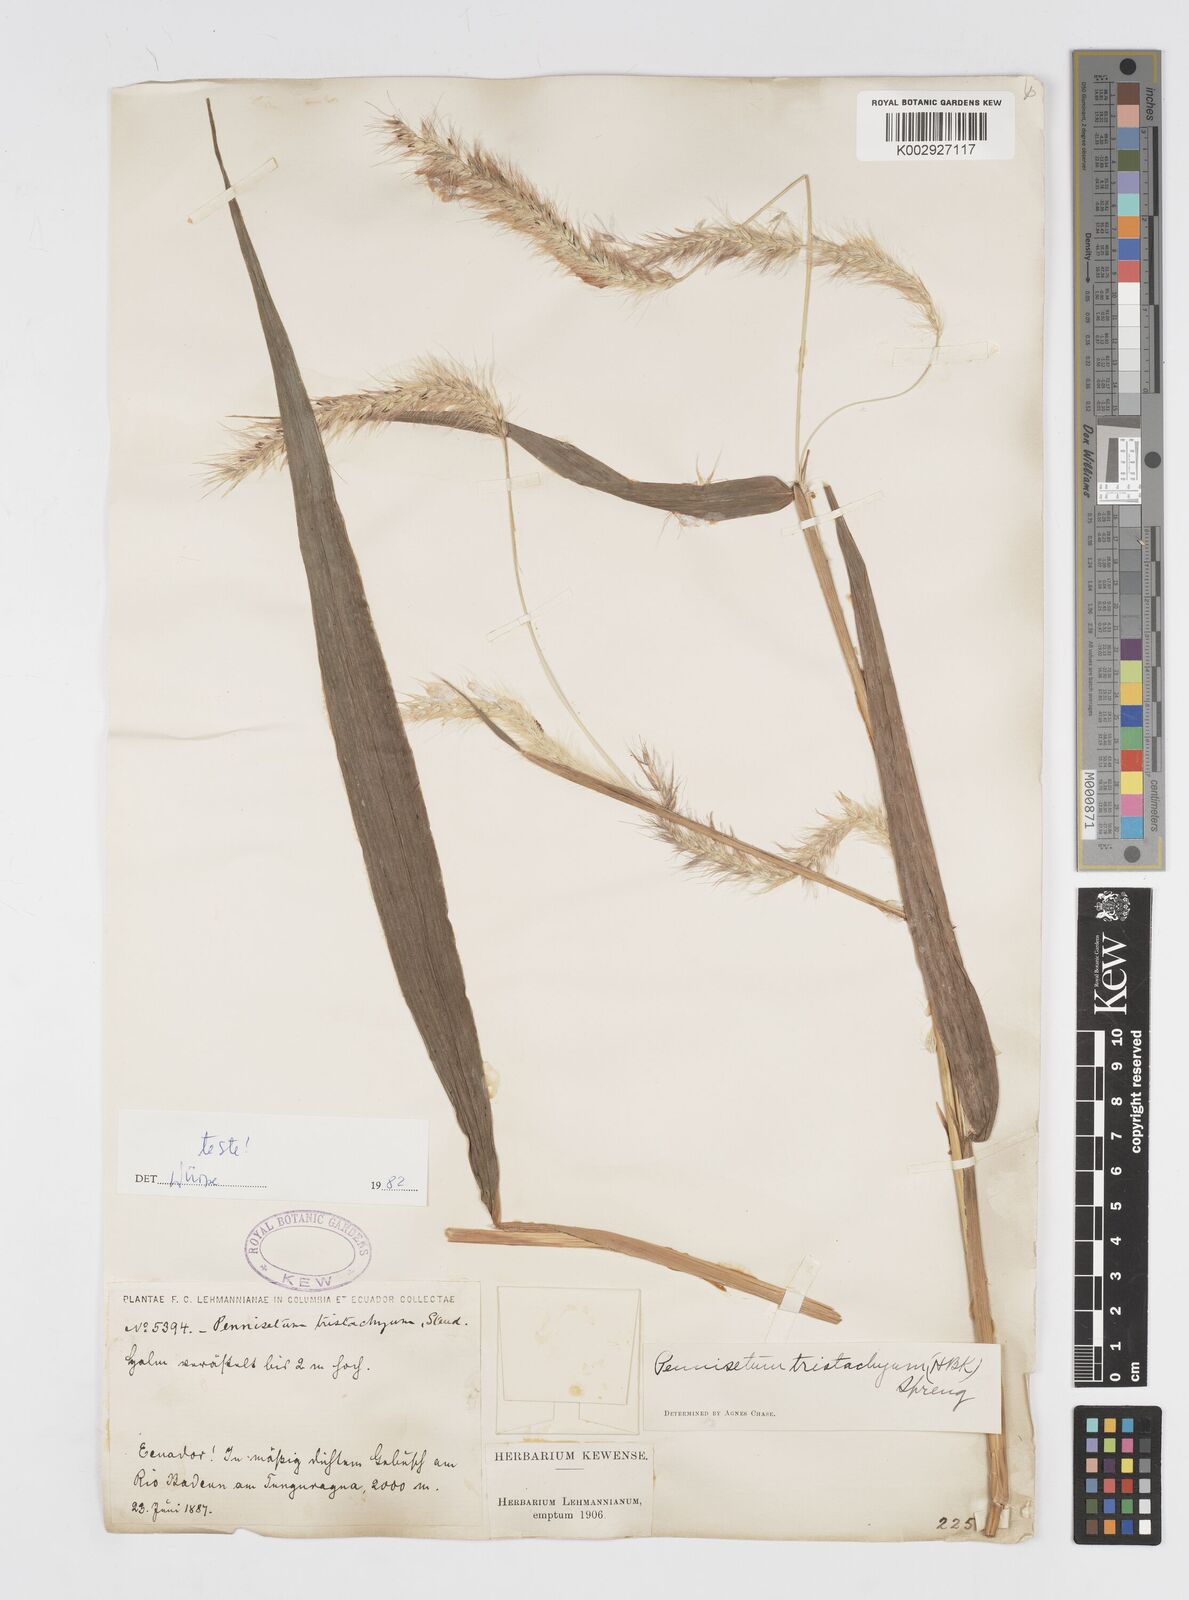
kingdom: Plantae
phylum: Tracheophyta
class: Liliopsida
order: Poales
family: Poaceae
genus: Cenchrus
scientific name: Cenchrus tristachyus
